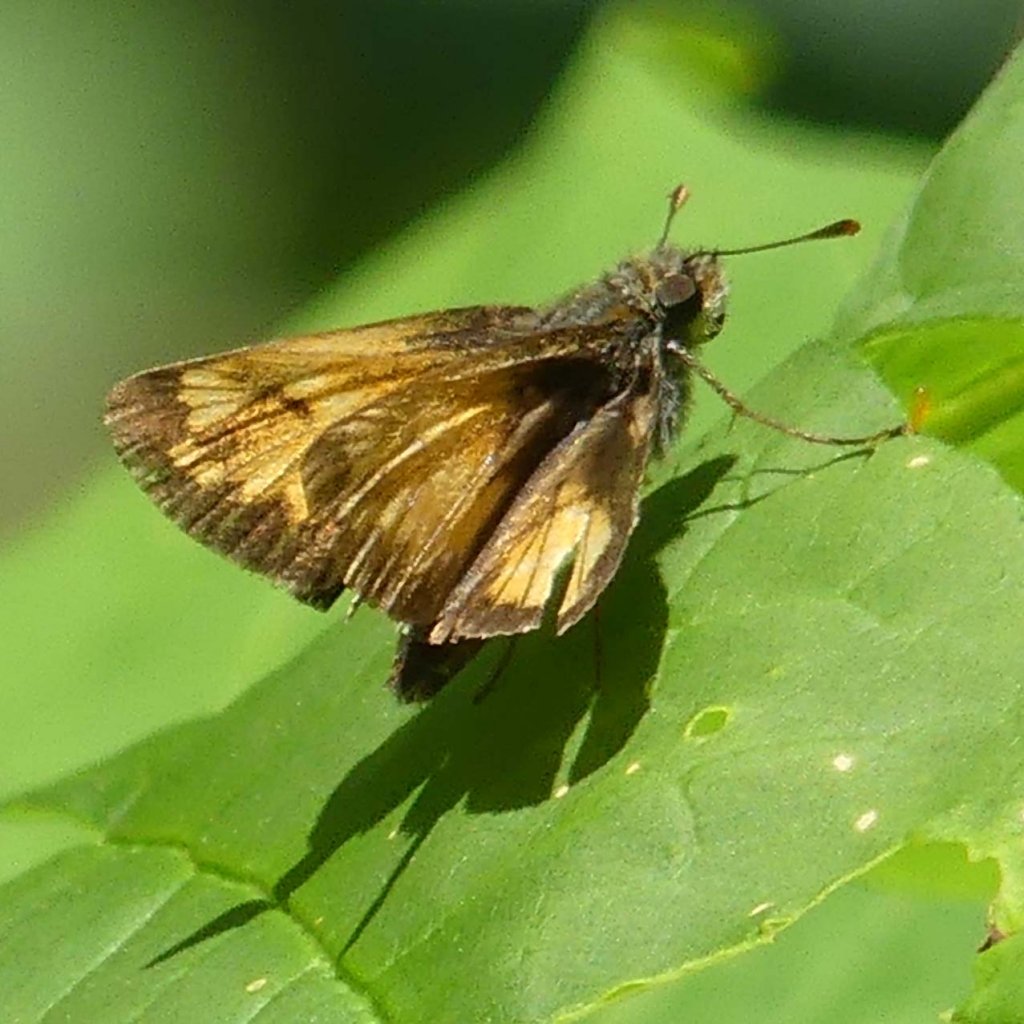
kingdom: Animalia
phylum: Arthropoda
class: Insecta
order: Lepidoptera
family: Hesperiidae
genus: Lon
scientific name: Lon hobomok
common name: Hobomok Skipper
